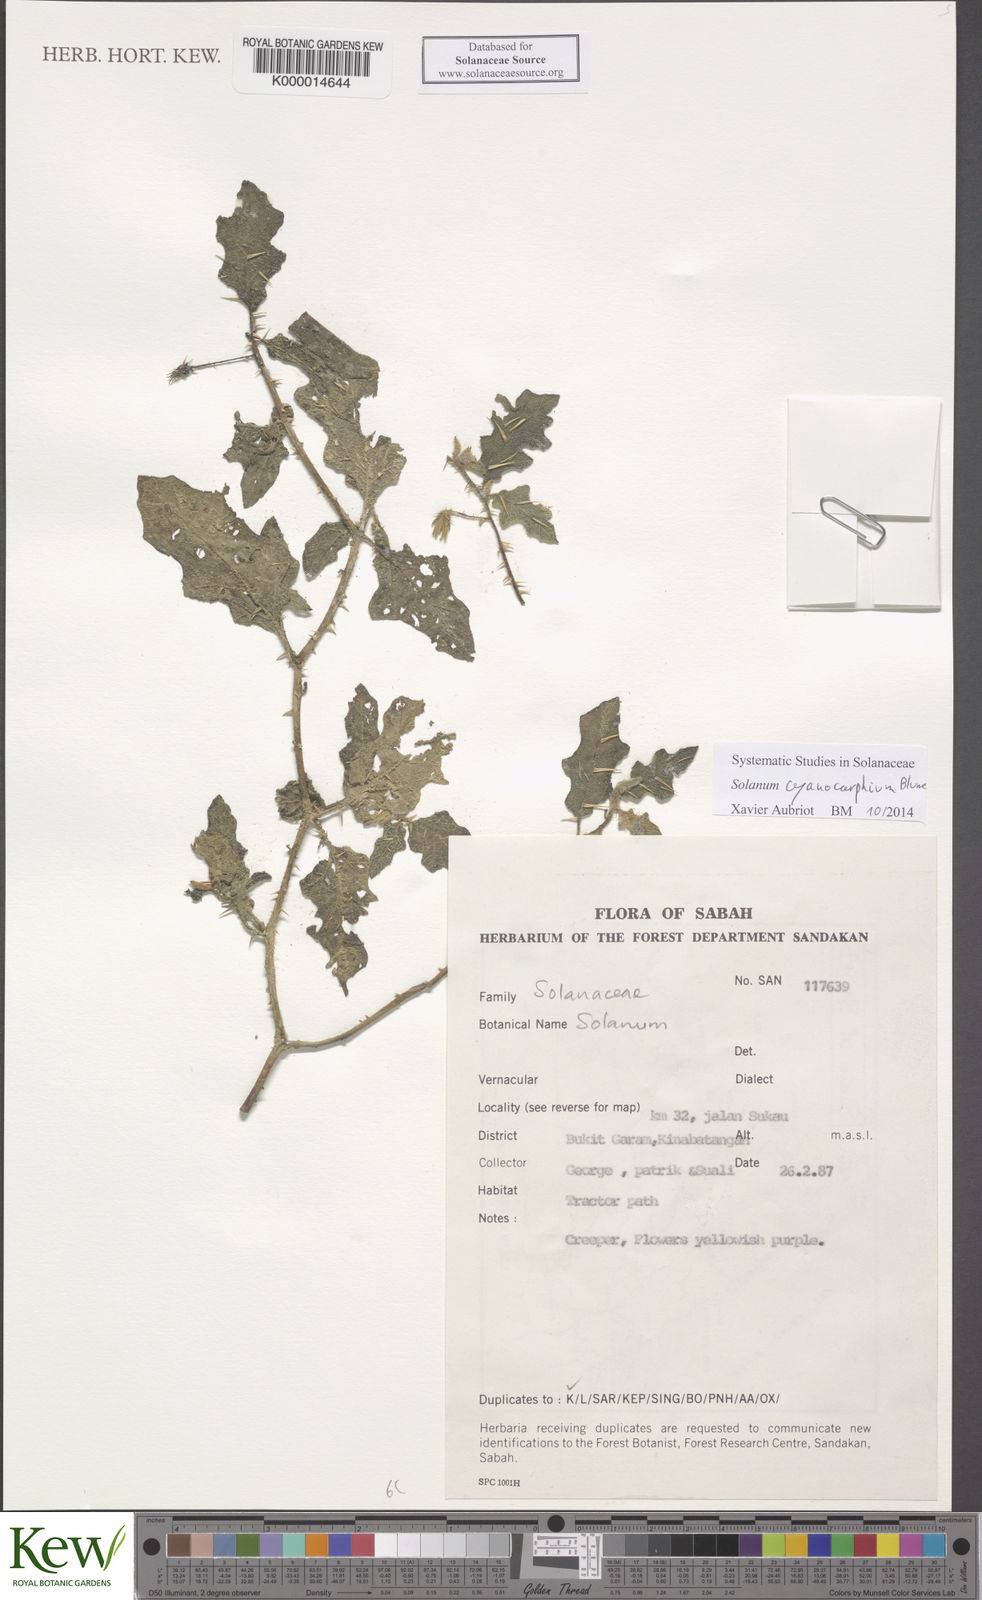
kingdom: Plantae
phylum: Tracheophyta
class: Magnoliopsida
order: Solanales
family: Solanaceae
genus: Solanum
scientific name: Solanum cyanocarphium
